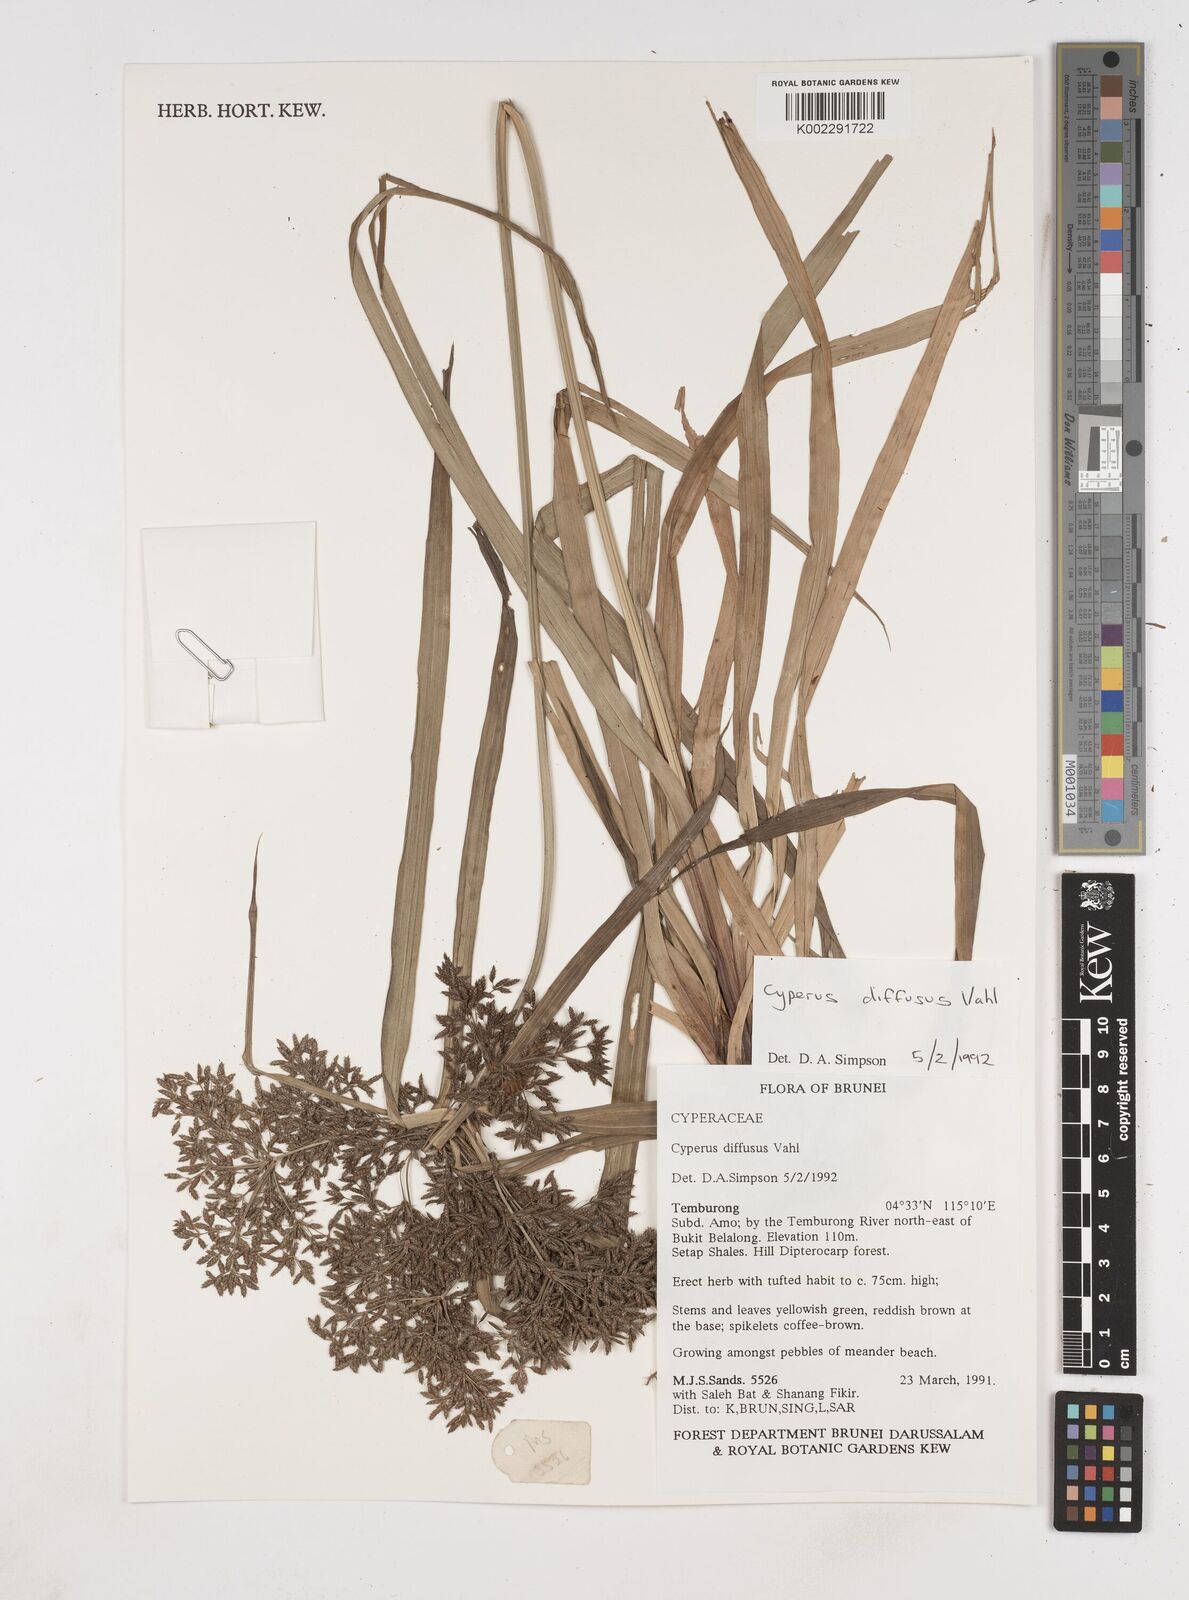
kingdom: Plantae
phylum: Tracheophyta
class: Liliopsida
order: Poales
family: Cyperaceae
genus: Cyperus
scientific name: Cyperus diffusus
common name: Dwarf umbrella grass
